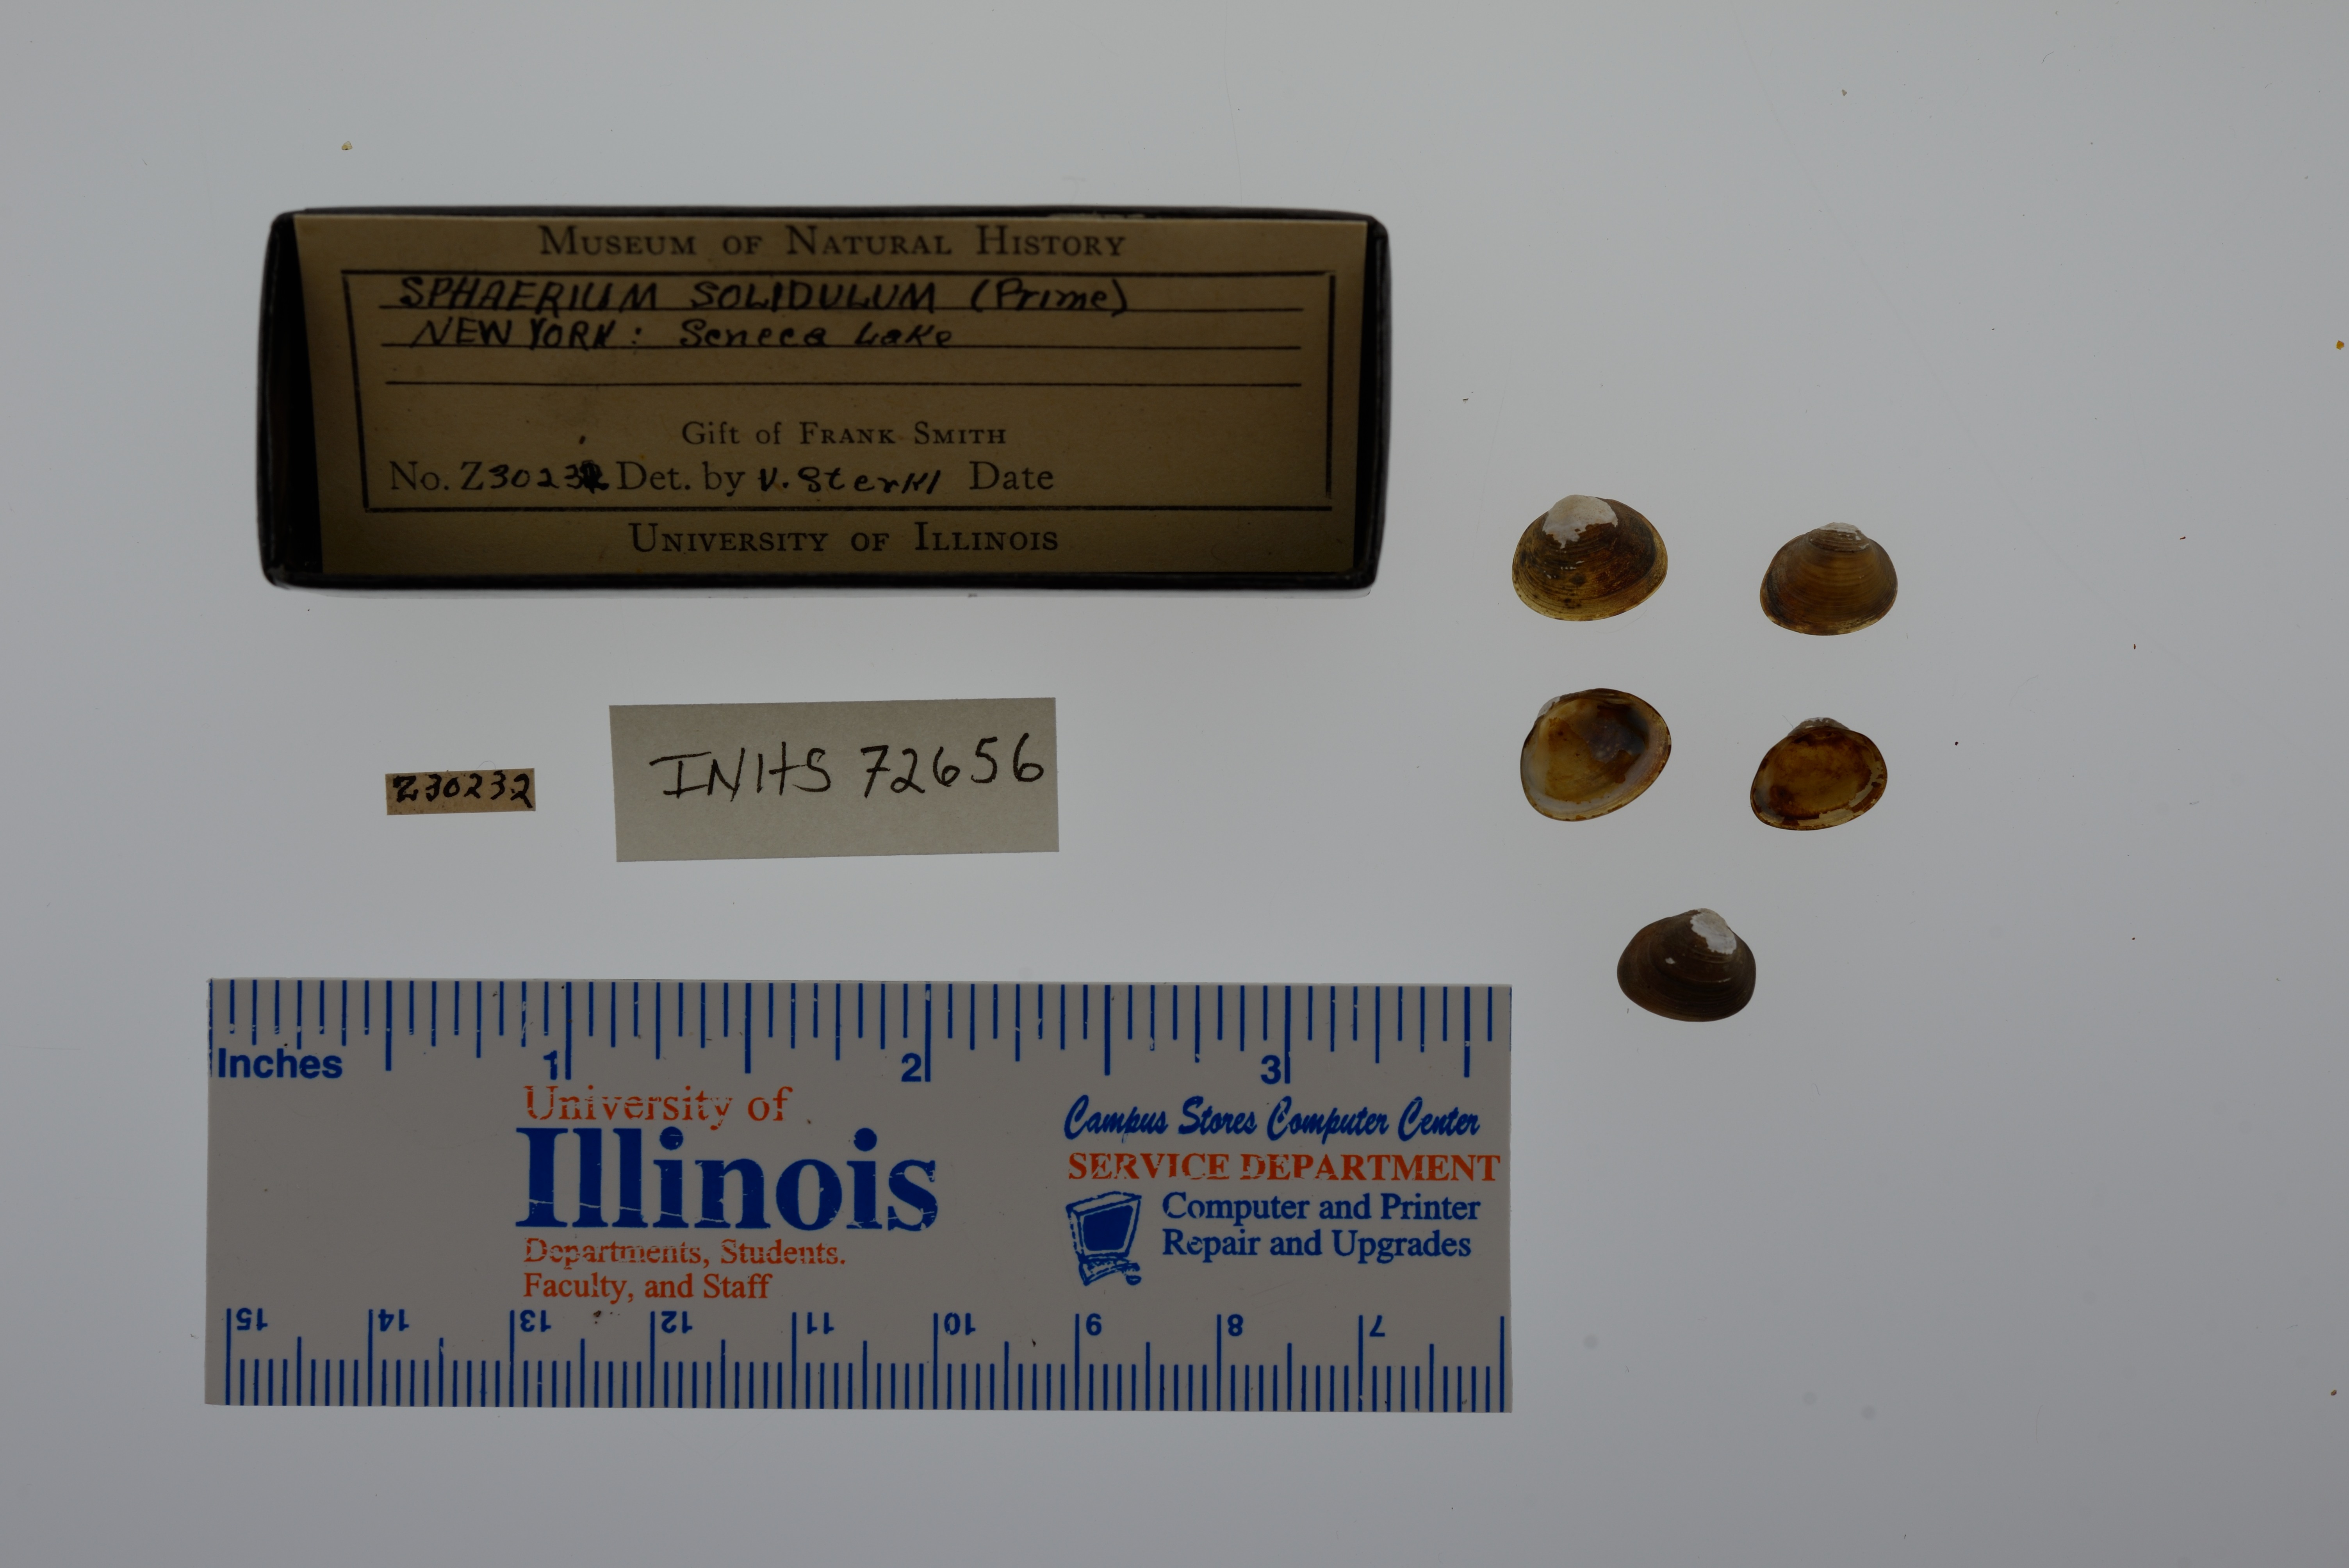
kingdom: Animalia
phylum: Mollusca
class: Bivalvia
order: Sphaeriida
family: Sphaeriidae
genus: Sphaerium
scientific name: Sphaerium striatinum
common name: Striated fingernailclam
